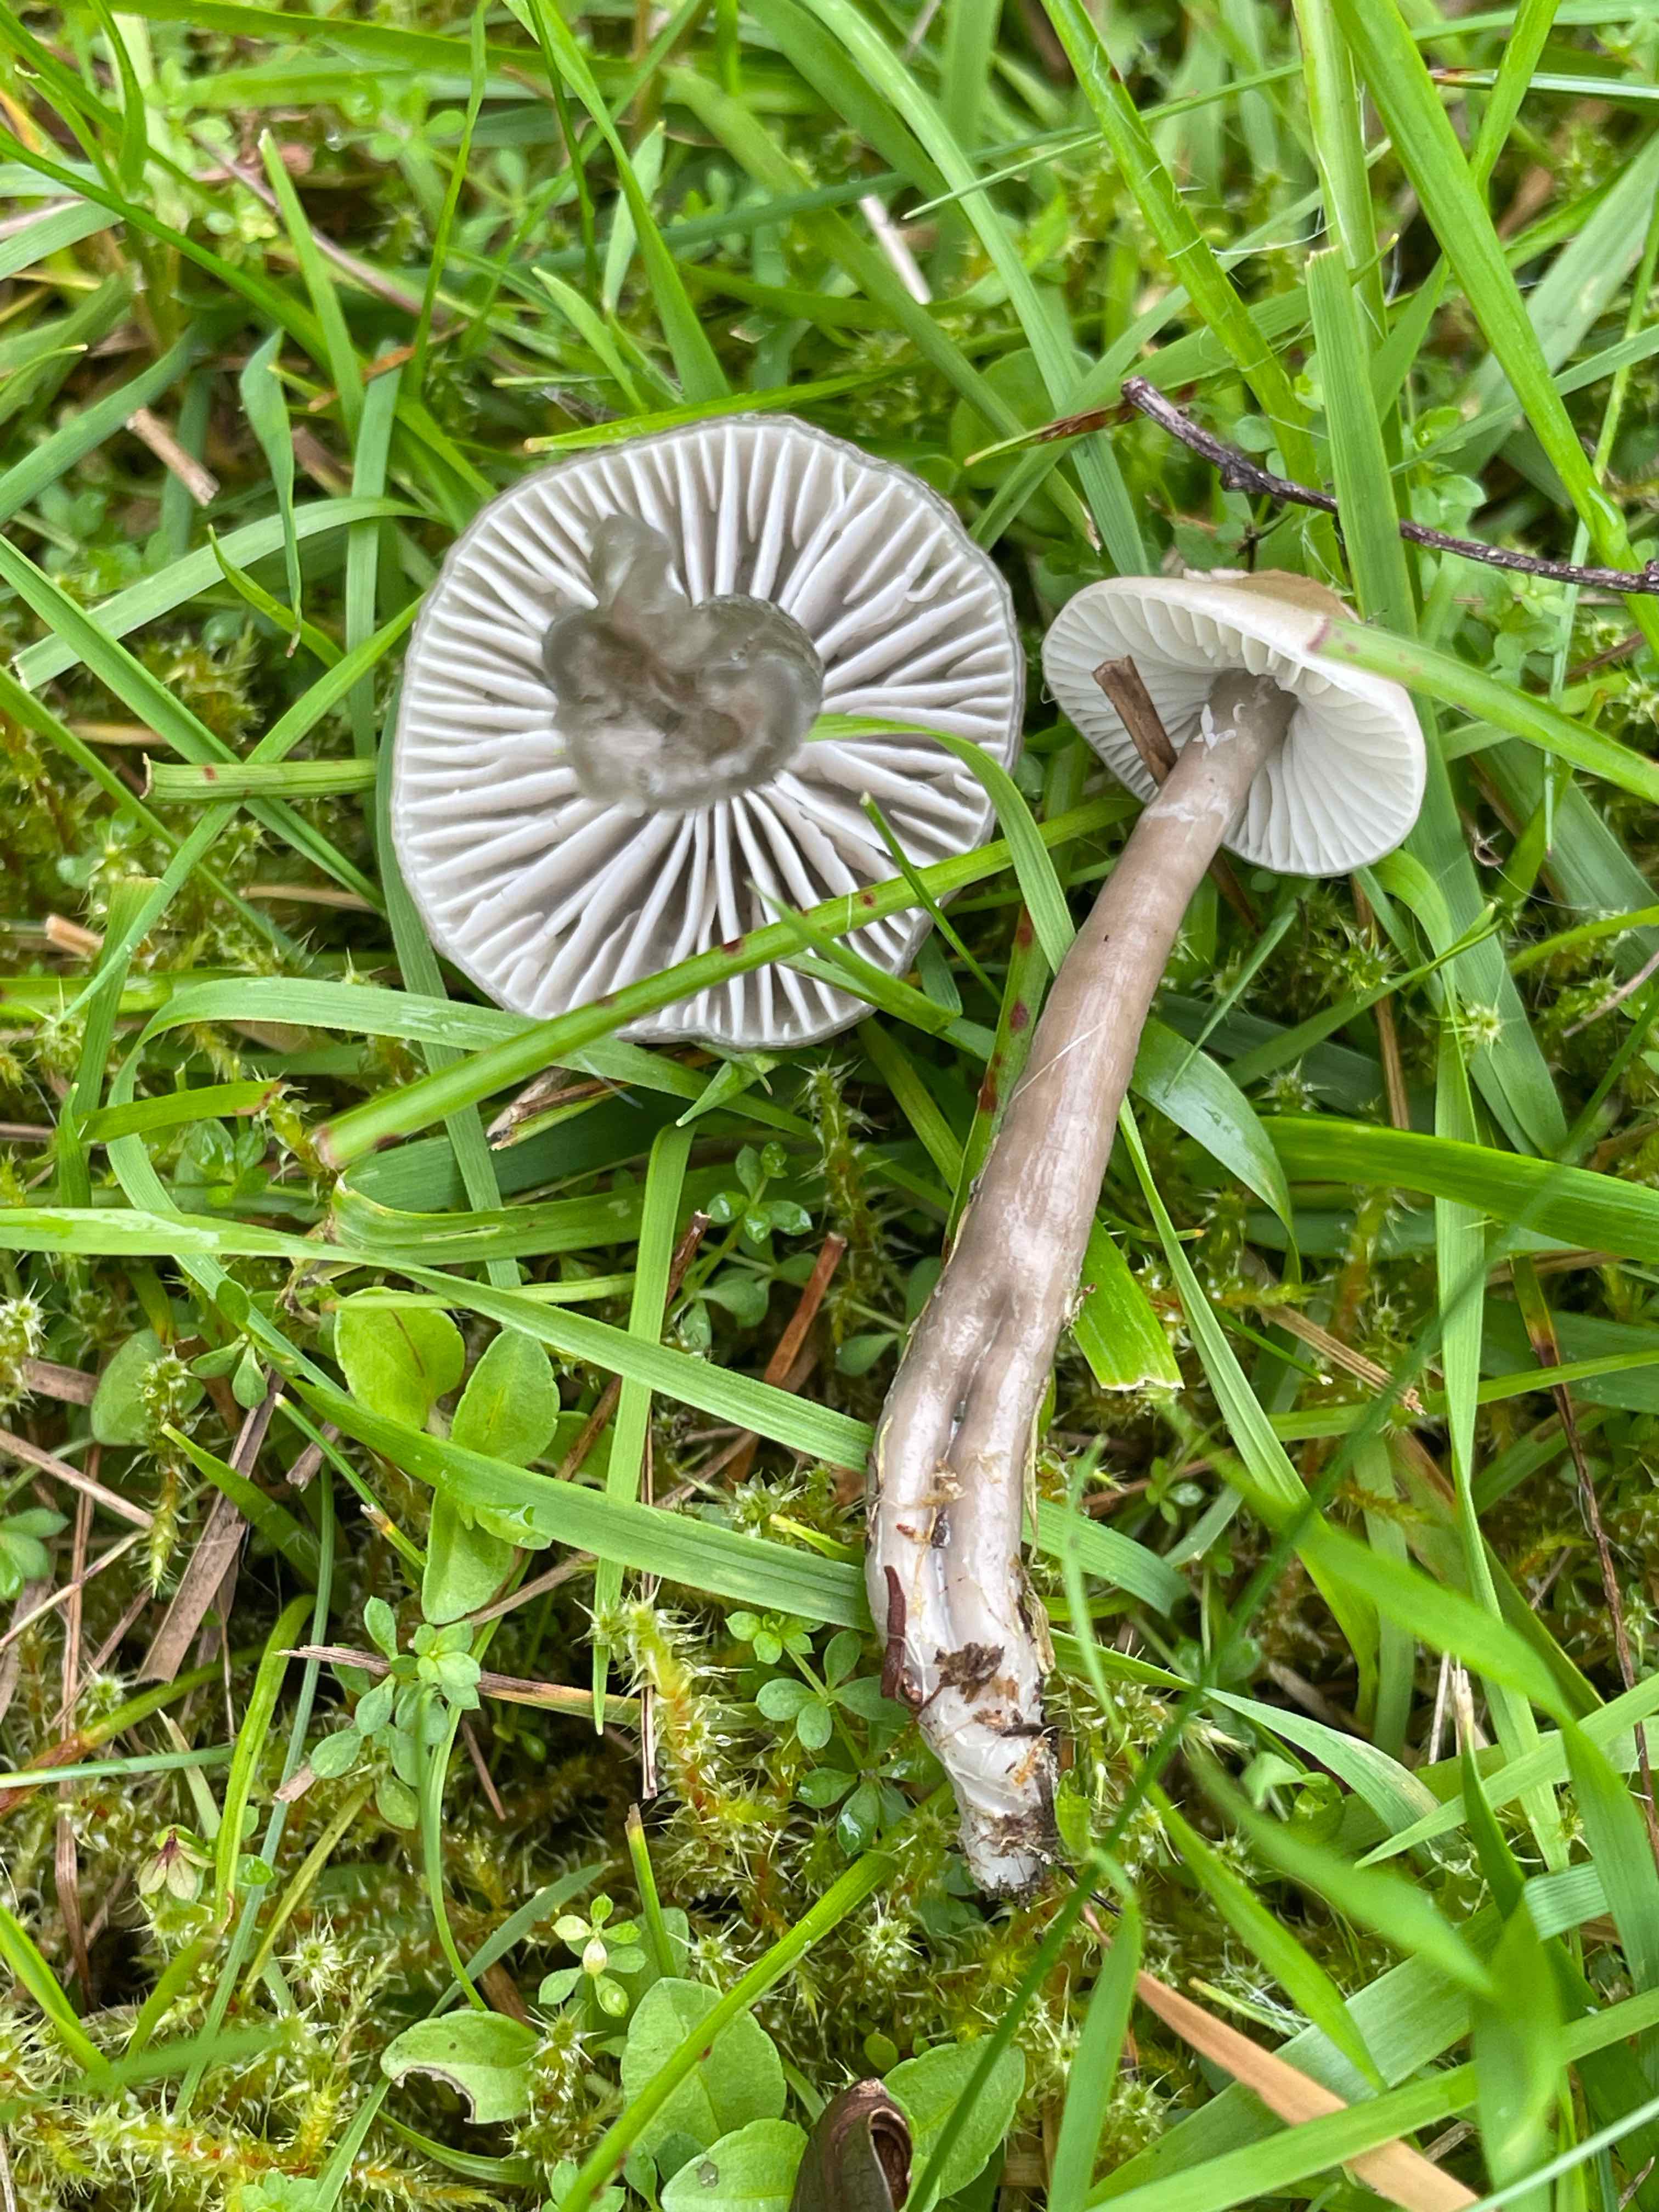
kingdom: Fungi
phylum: Basidiomycota
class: Agaricomycetes
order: Agaricales
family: Hygrophoraceae
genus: Gliophorus
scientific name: Gliophorus irrigatus
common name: slimet vokshat
